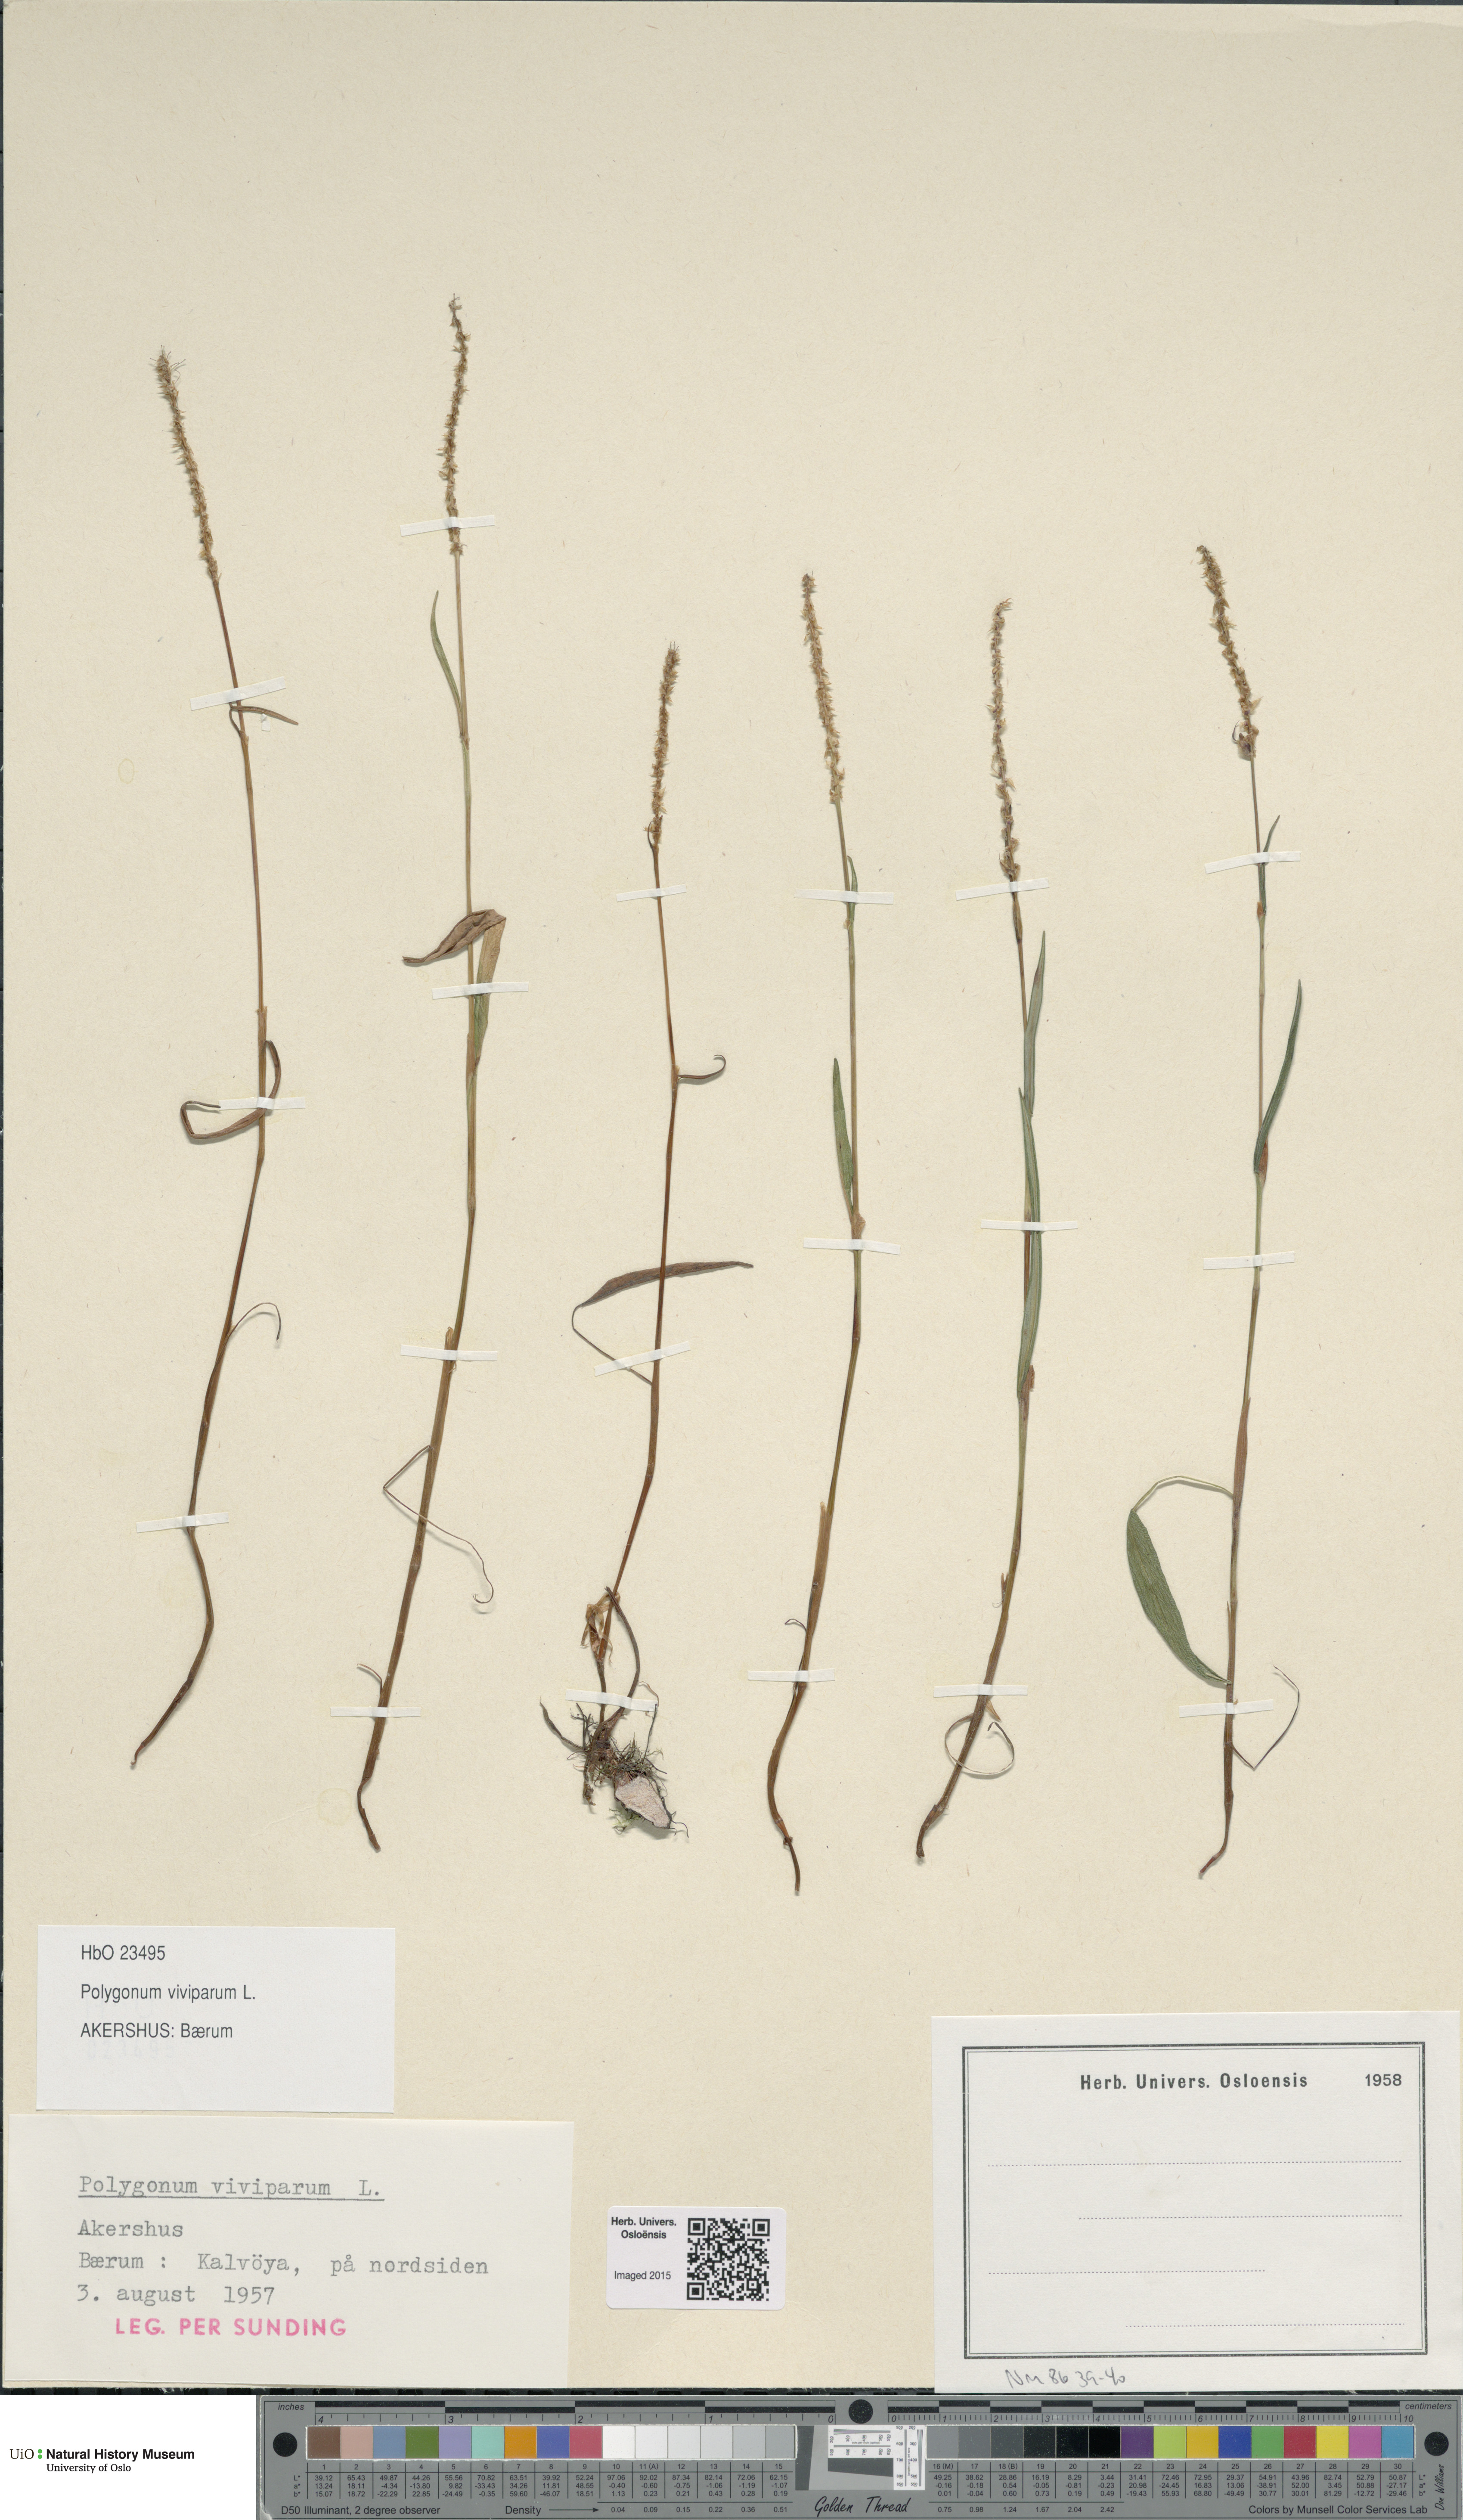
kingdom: Plantae
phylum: Tracheophyta
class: Magnoliopsida
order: Caryophyllales
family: Polygonaceae
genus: Bistorta
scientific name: Bistorta vivipara
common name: Alpine bistort
